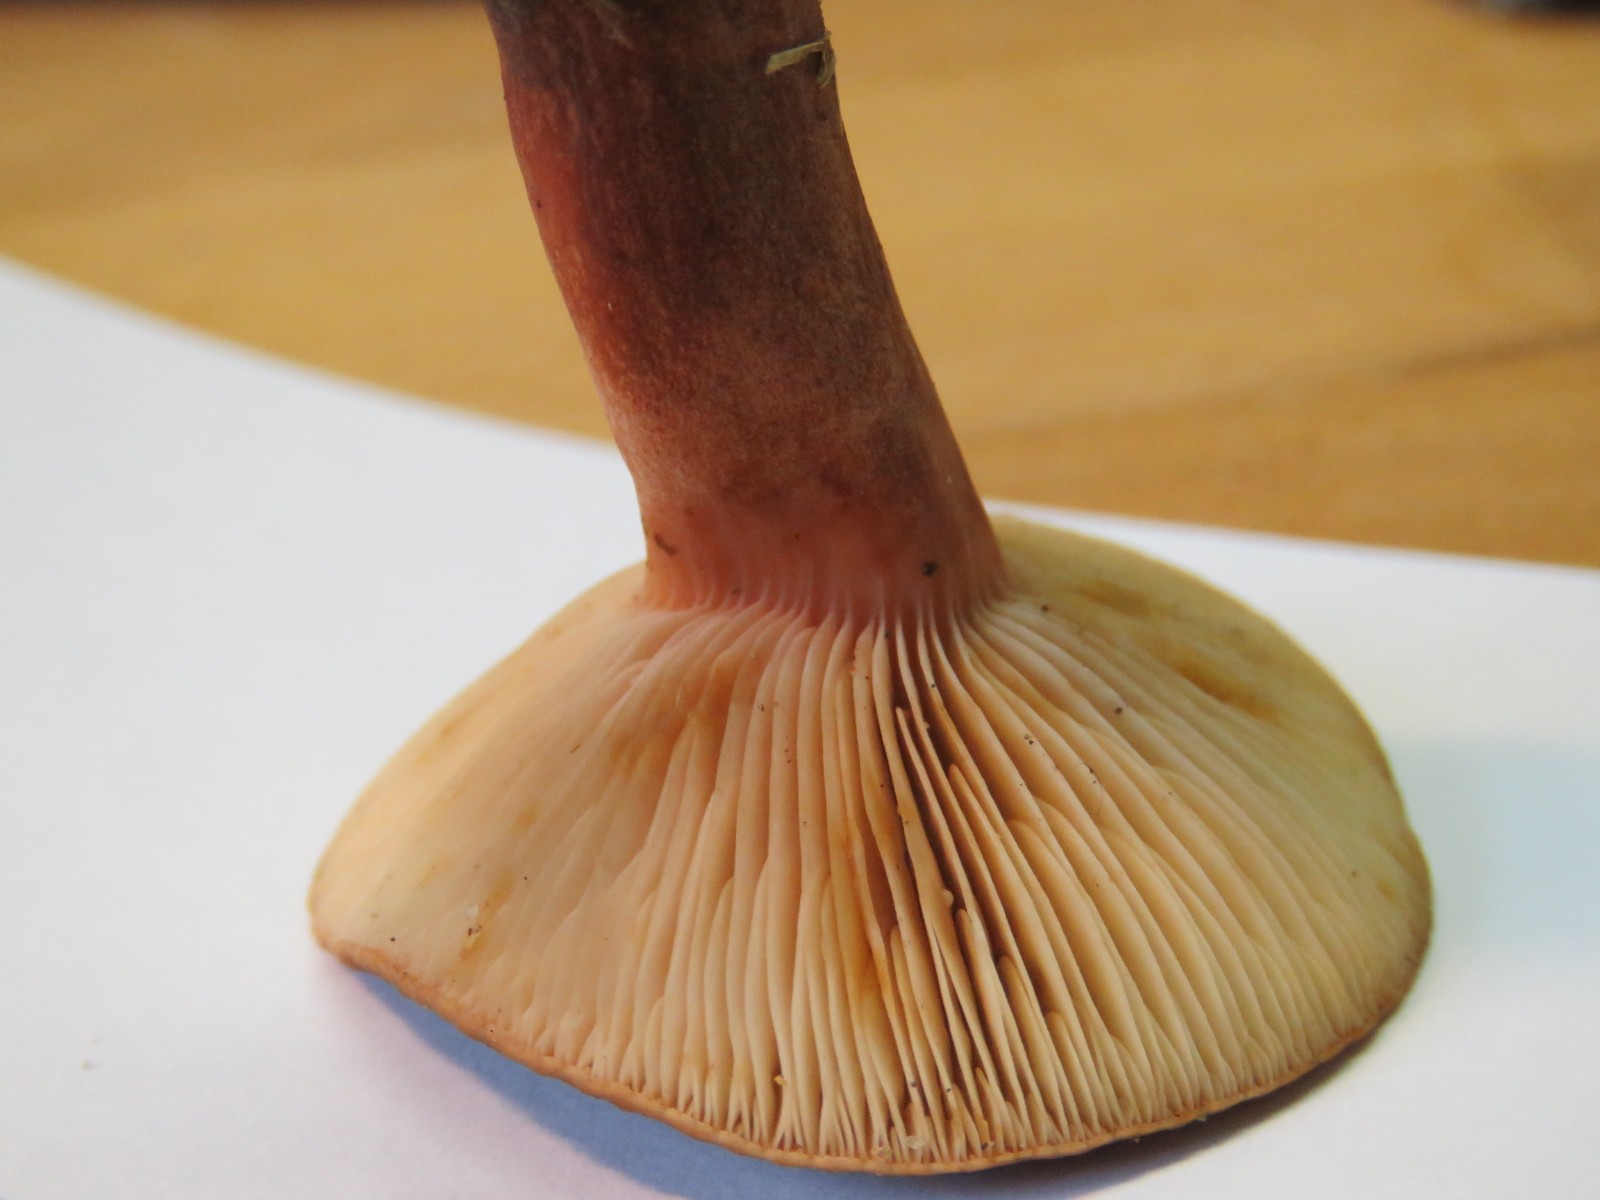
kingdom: Fungi
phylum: Basidiomycota
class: Agaricomycetes
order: Russulales
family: Russulaceae
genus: Lactarius
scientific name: Lactarius
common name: mælkehat
